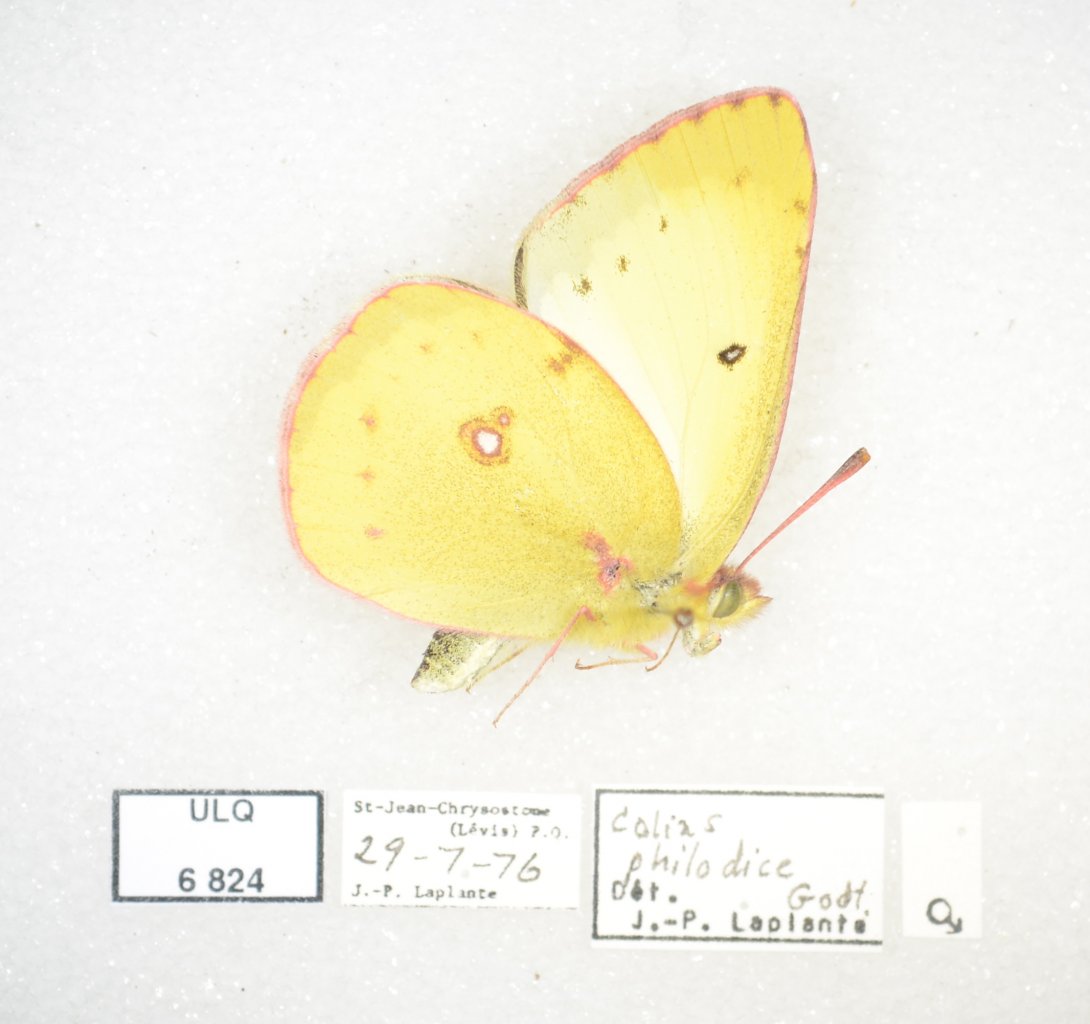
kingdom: Animalia
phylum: Arthropoda
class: Insecta
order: Lepidoptera
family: Pieridae
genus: Colias
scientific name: Colias philodice
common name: Clouded Sulphur
